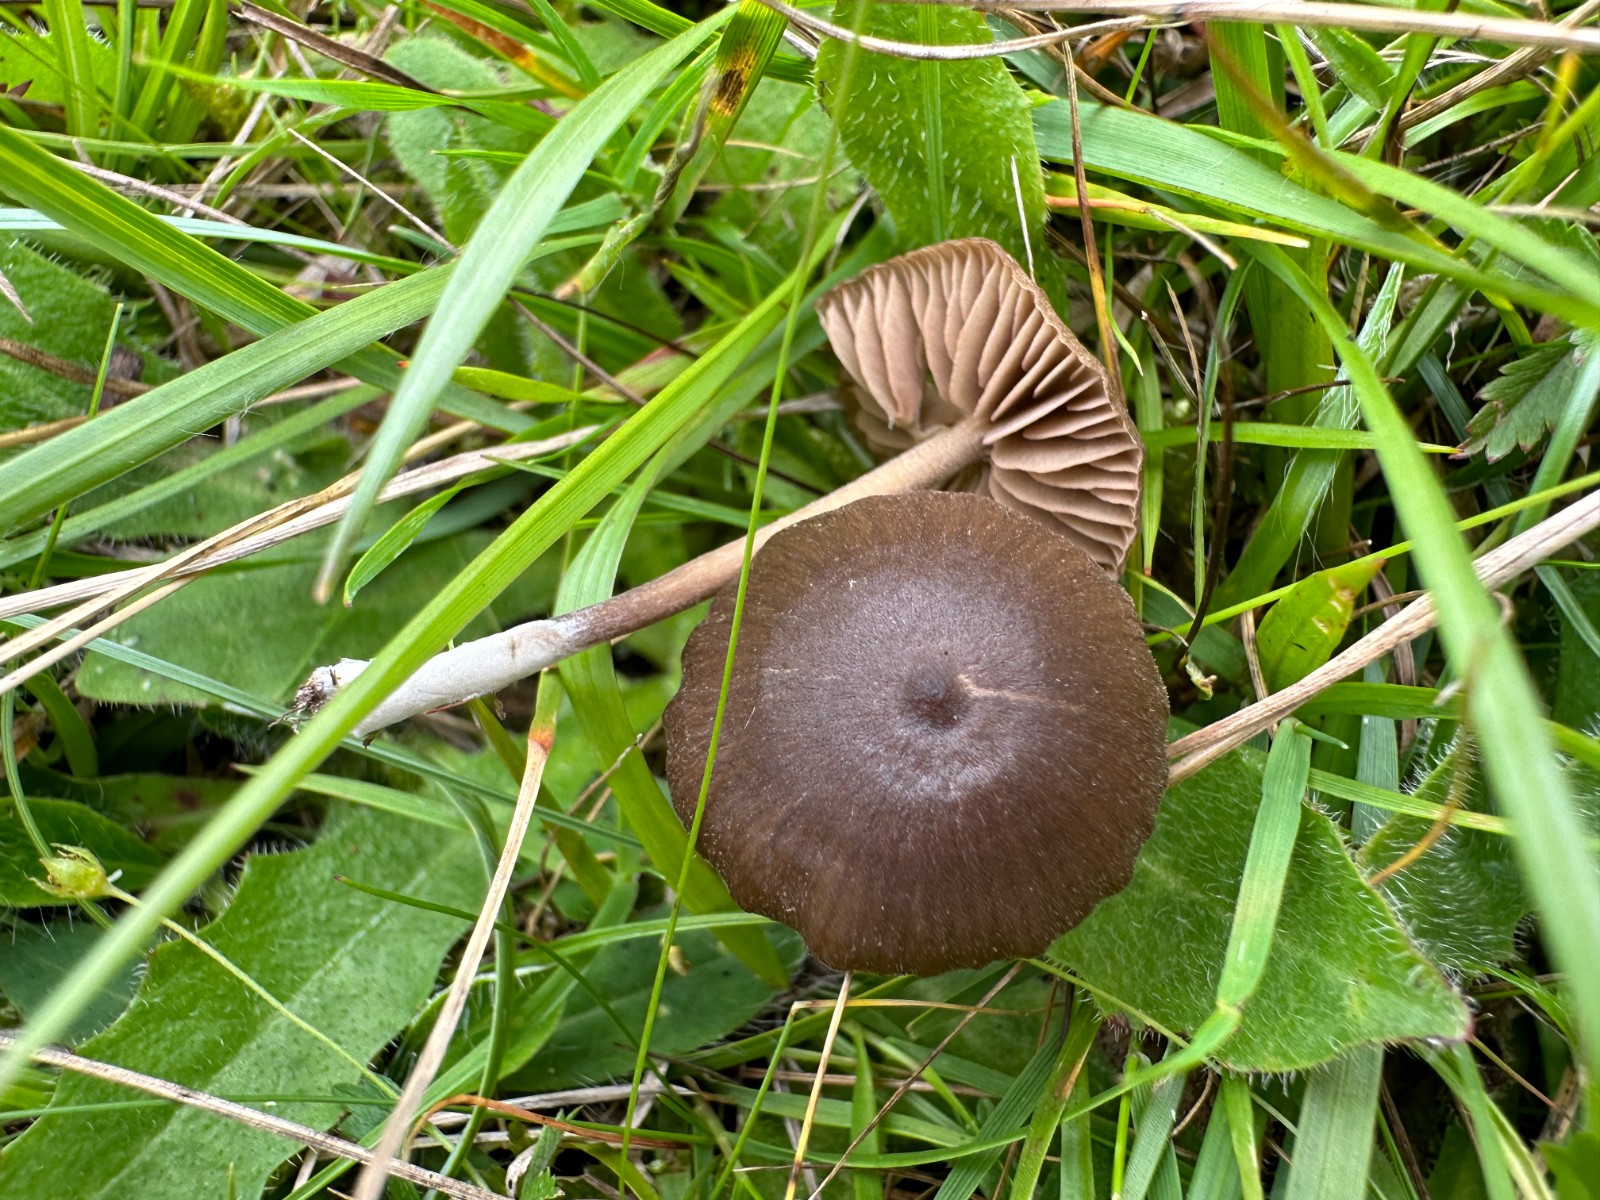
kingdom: Fungi
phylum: Basidiomycota
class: Agaricomycetes
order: Agaricales
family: Entolomataceae
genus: Entoloma
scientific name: Entoloma clandestinum
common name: tykbladet rødblad
